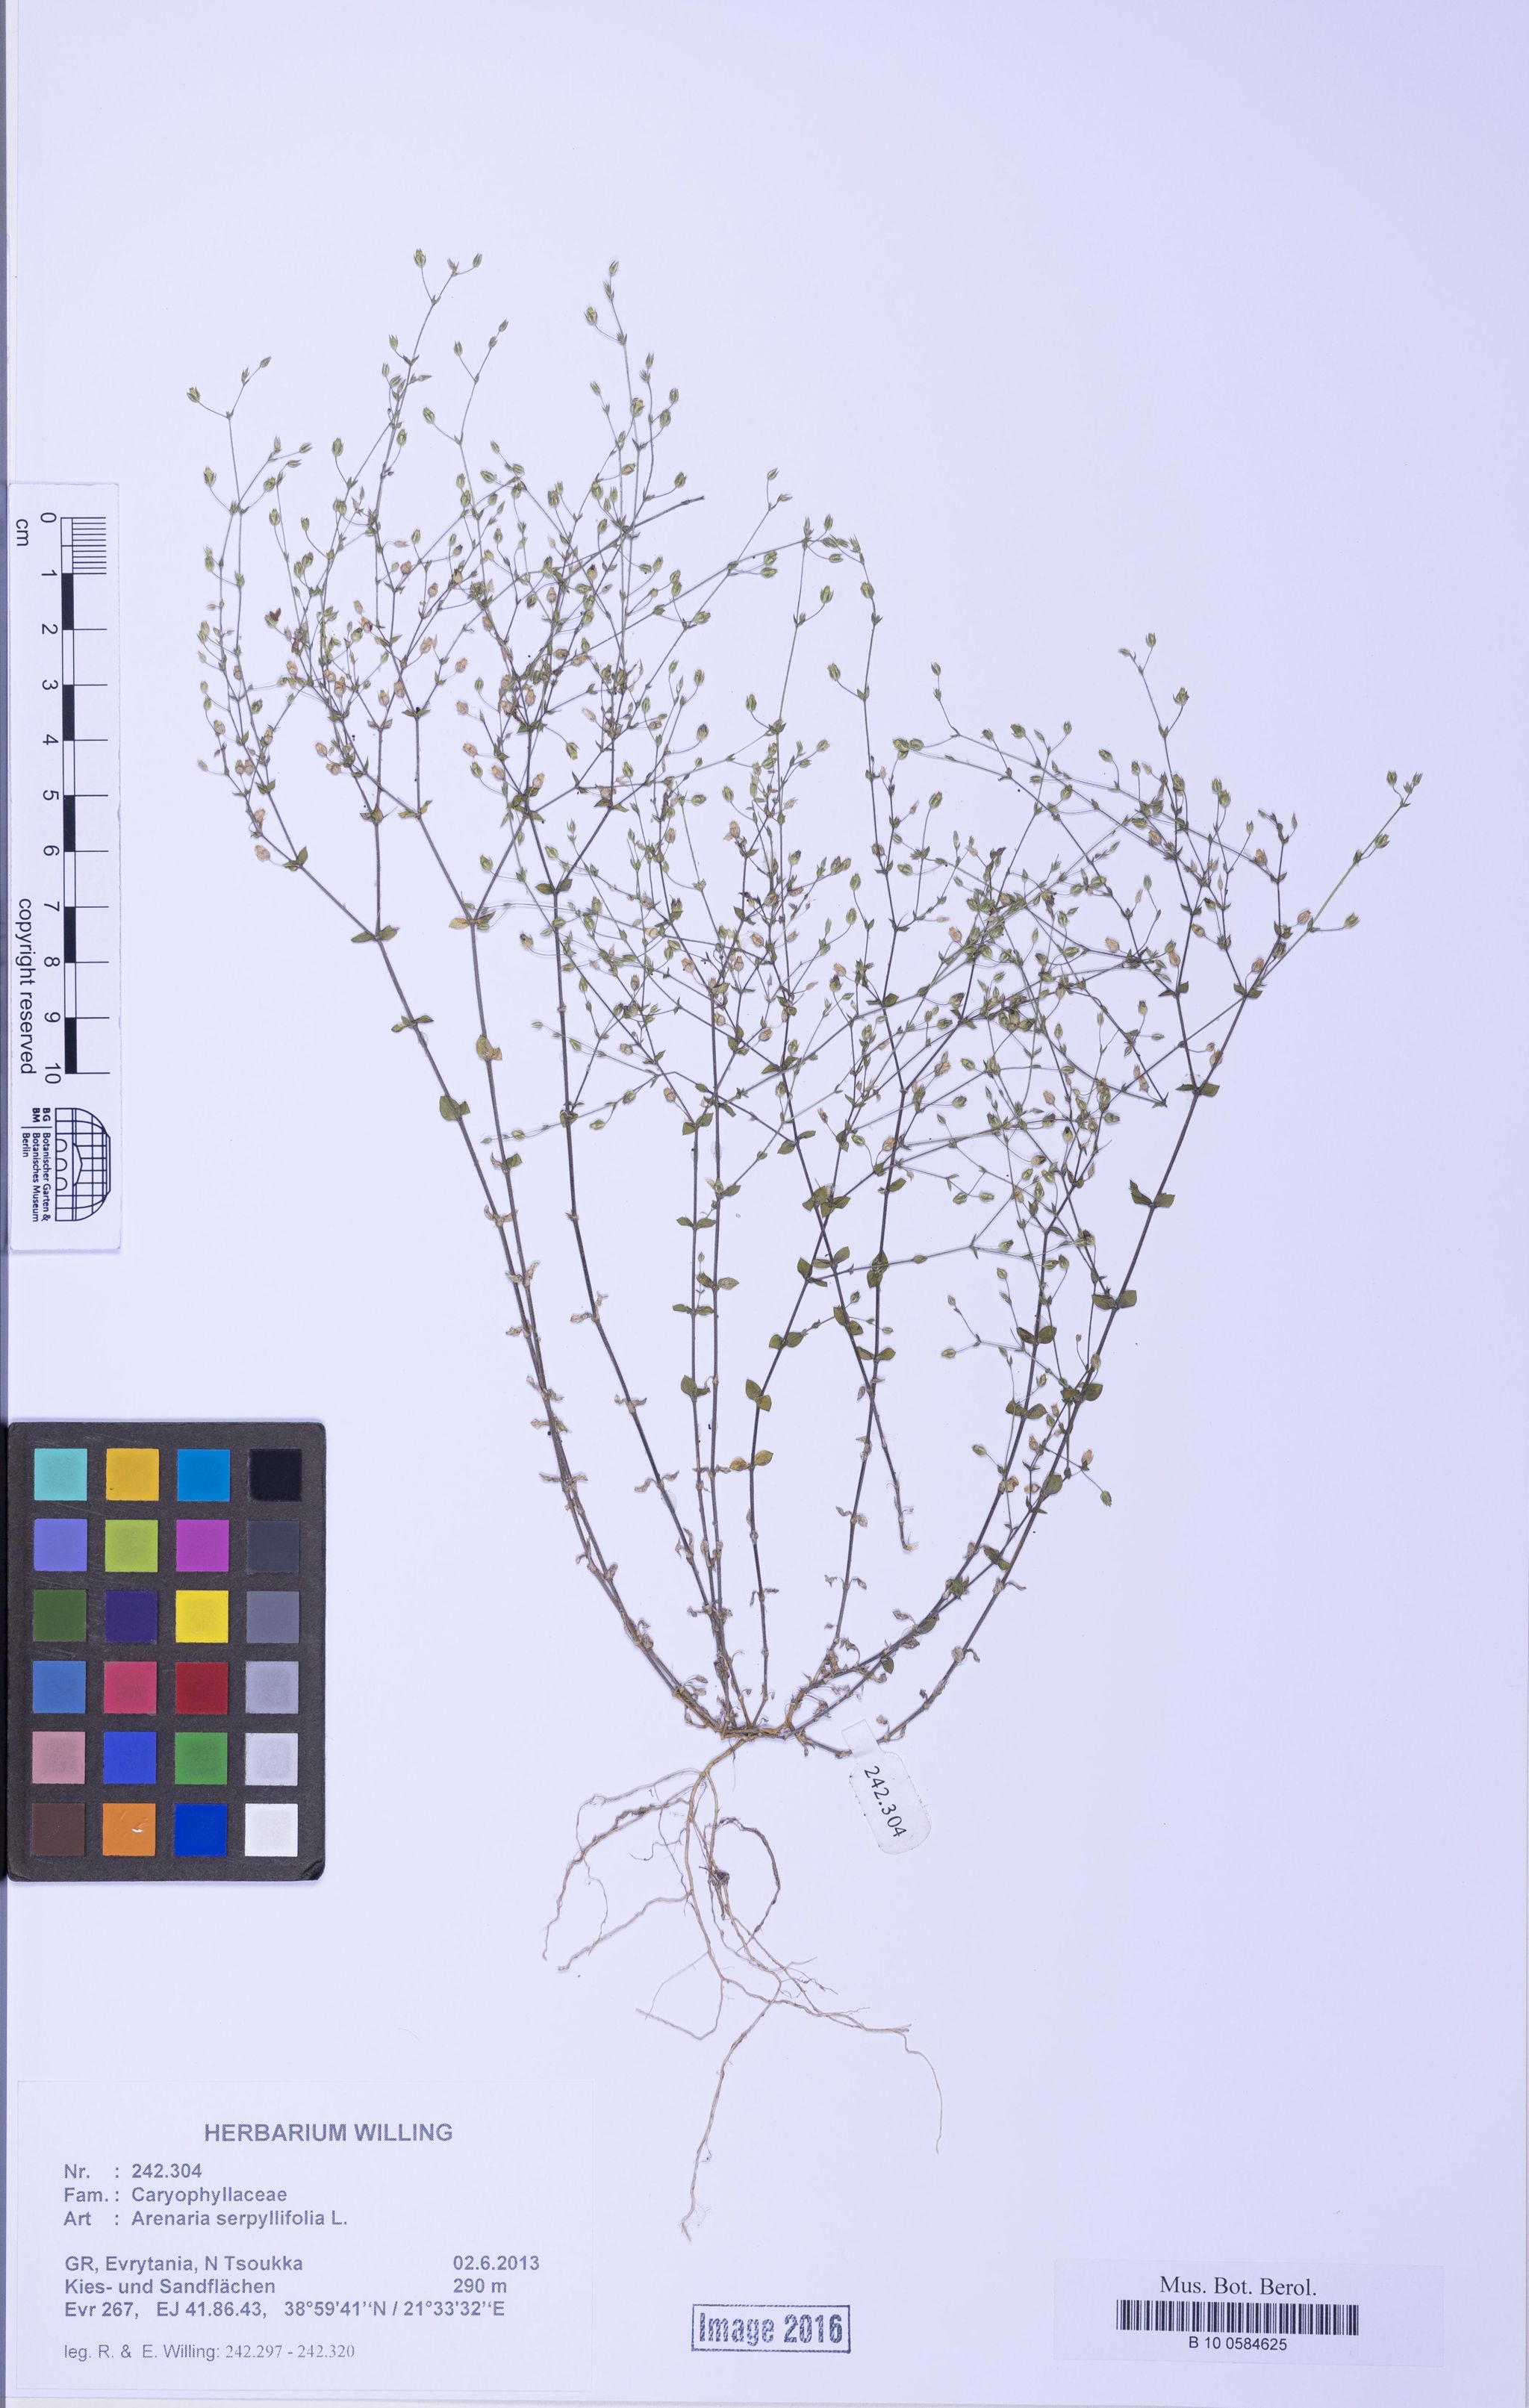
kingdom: Plantae
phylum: Tracheophyta
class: Magnoliopsida
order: Caryophyllales
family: Caryophyllaceae
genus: Arenaria
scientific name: Arenaria serpyllifolia
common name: Thyme-leaved sandwort
